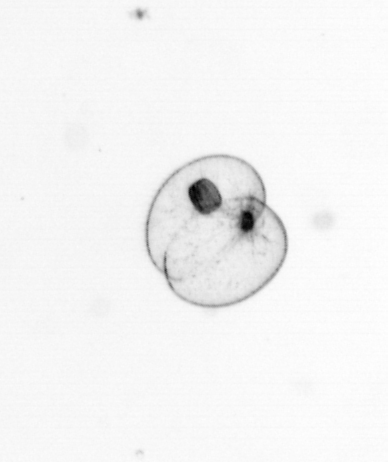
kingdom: Chromista
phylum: Myzozoa
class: Dinophyceae
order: Noctilucales
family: Noctilucaceae
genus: Noctiluca
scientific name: Noctiluca scintillans
